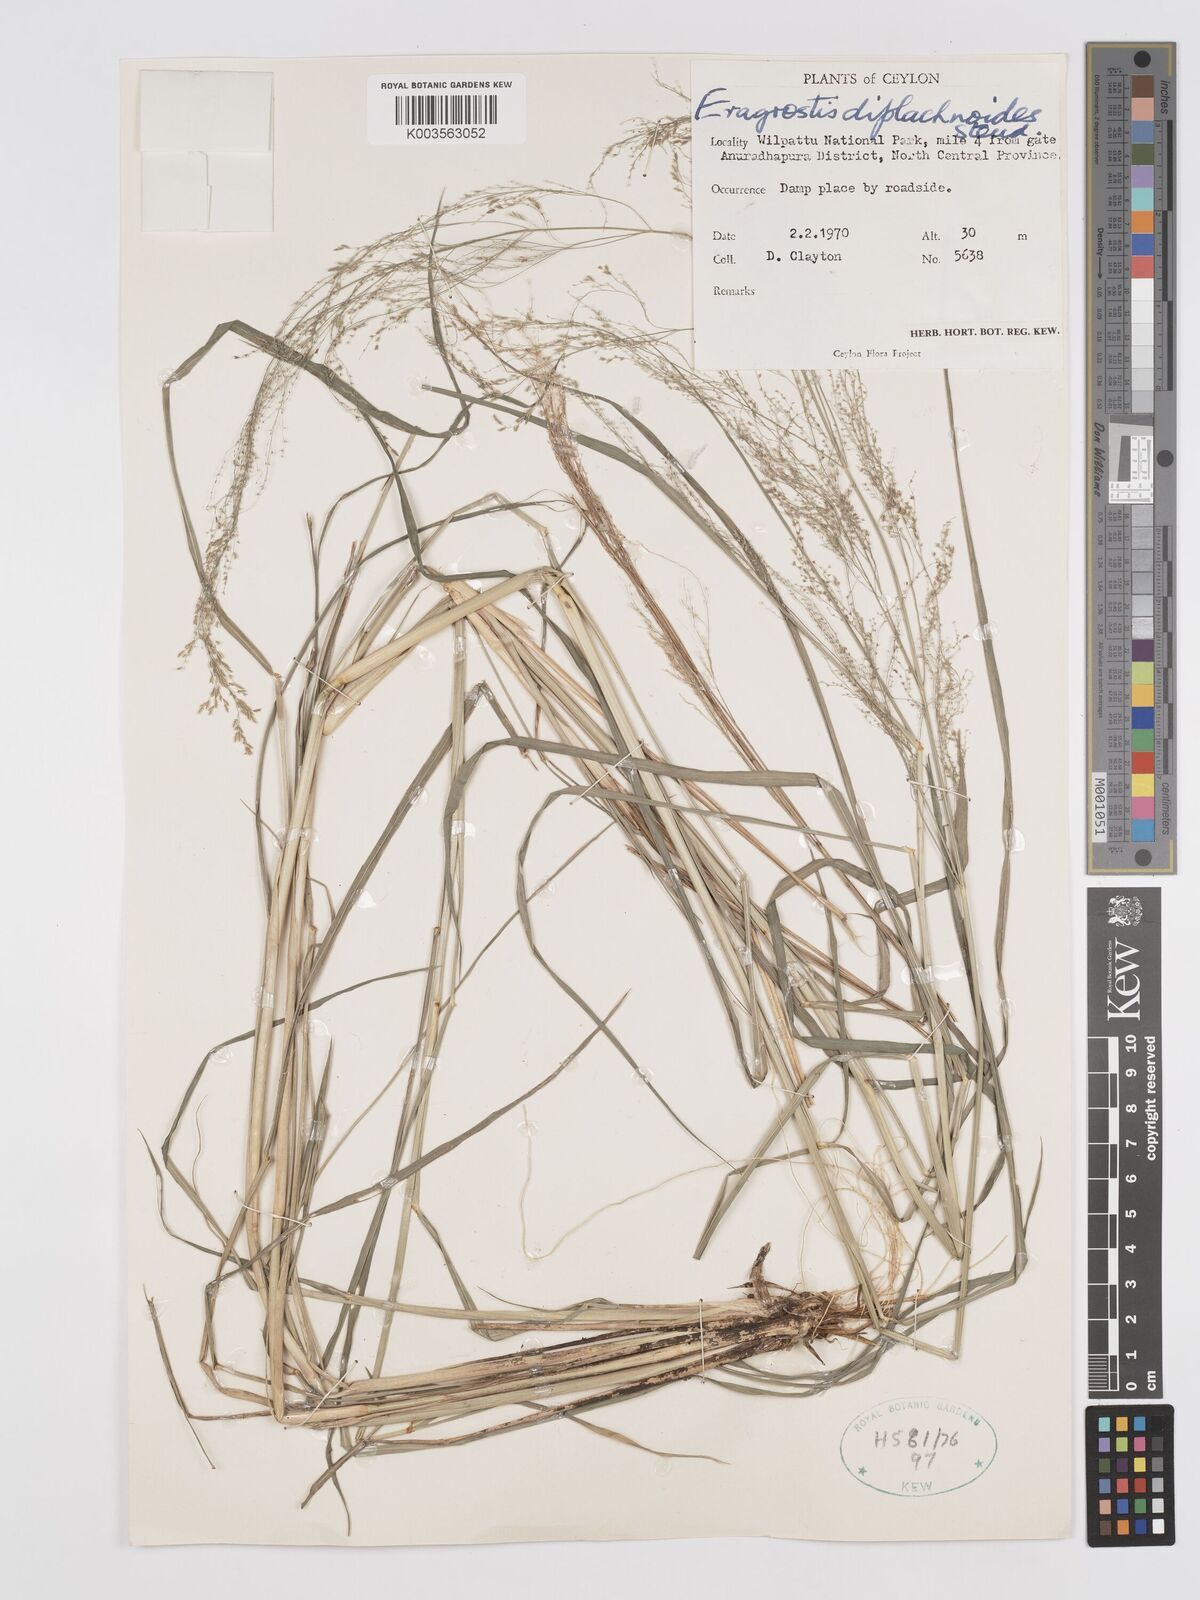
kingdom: Plantae
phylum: Tracheophyta
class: Liliopsida
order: Poales
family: Poaceae
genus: Eragrostis
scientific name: Eragrostis japonica
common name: Pond lovegrass
